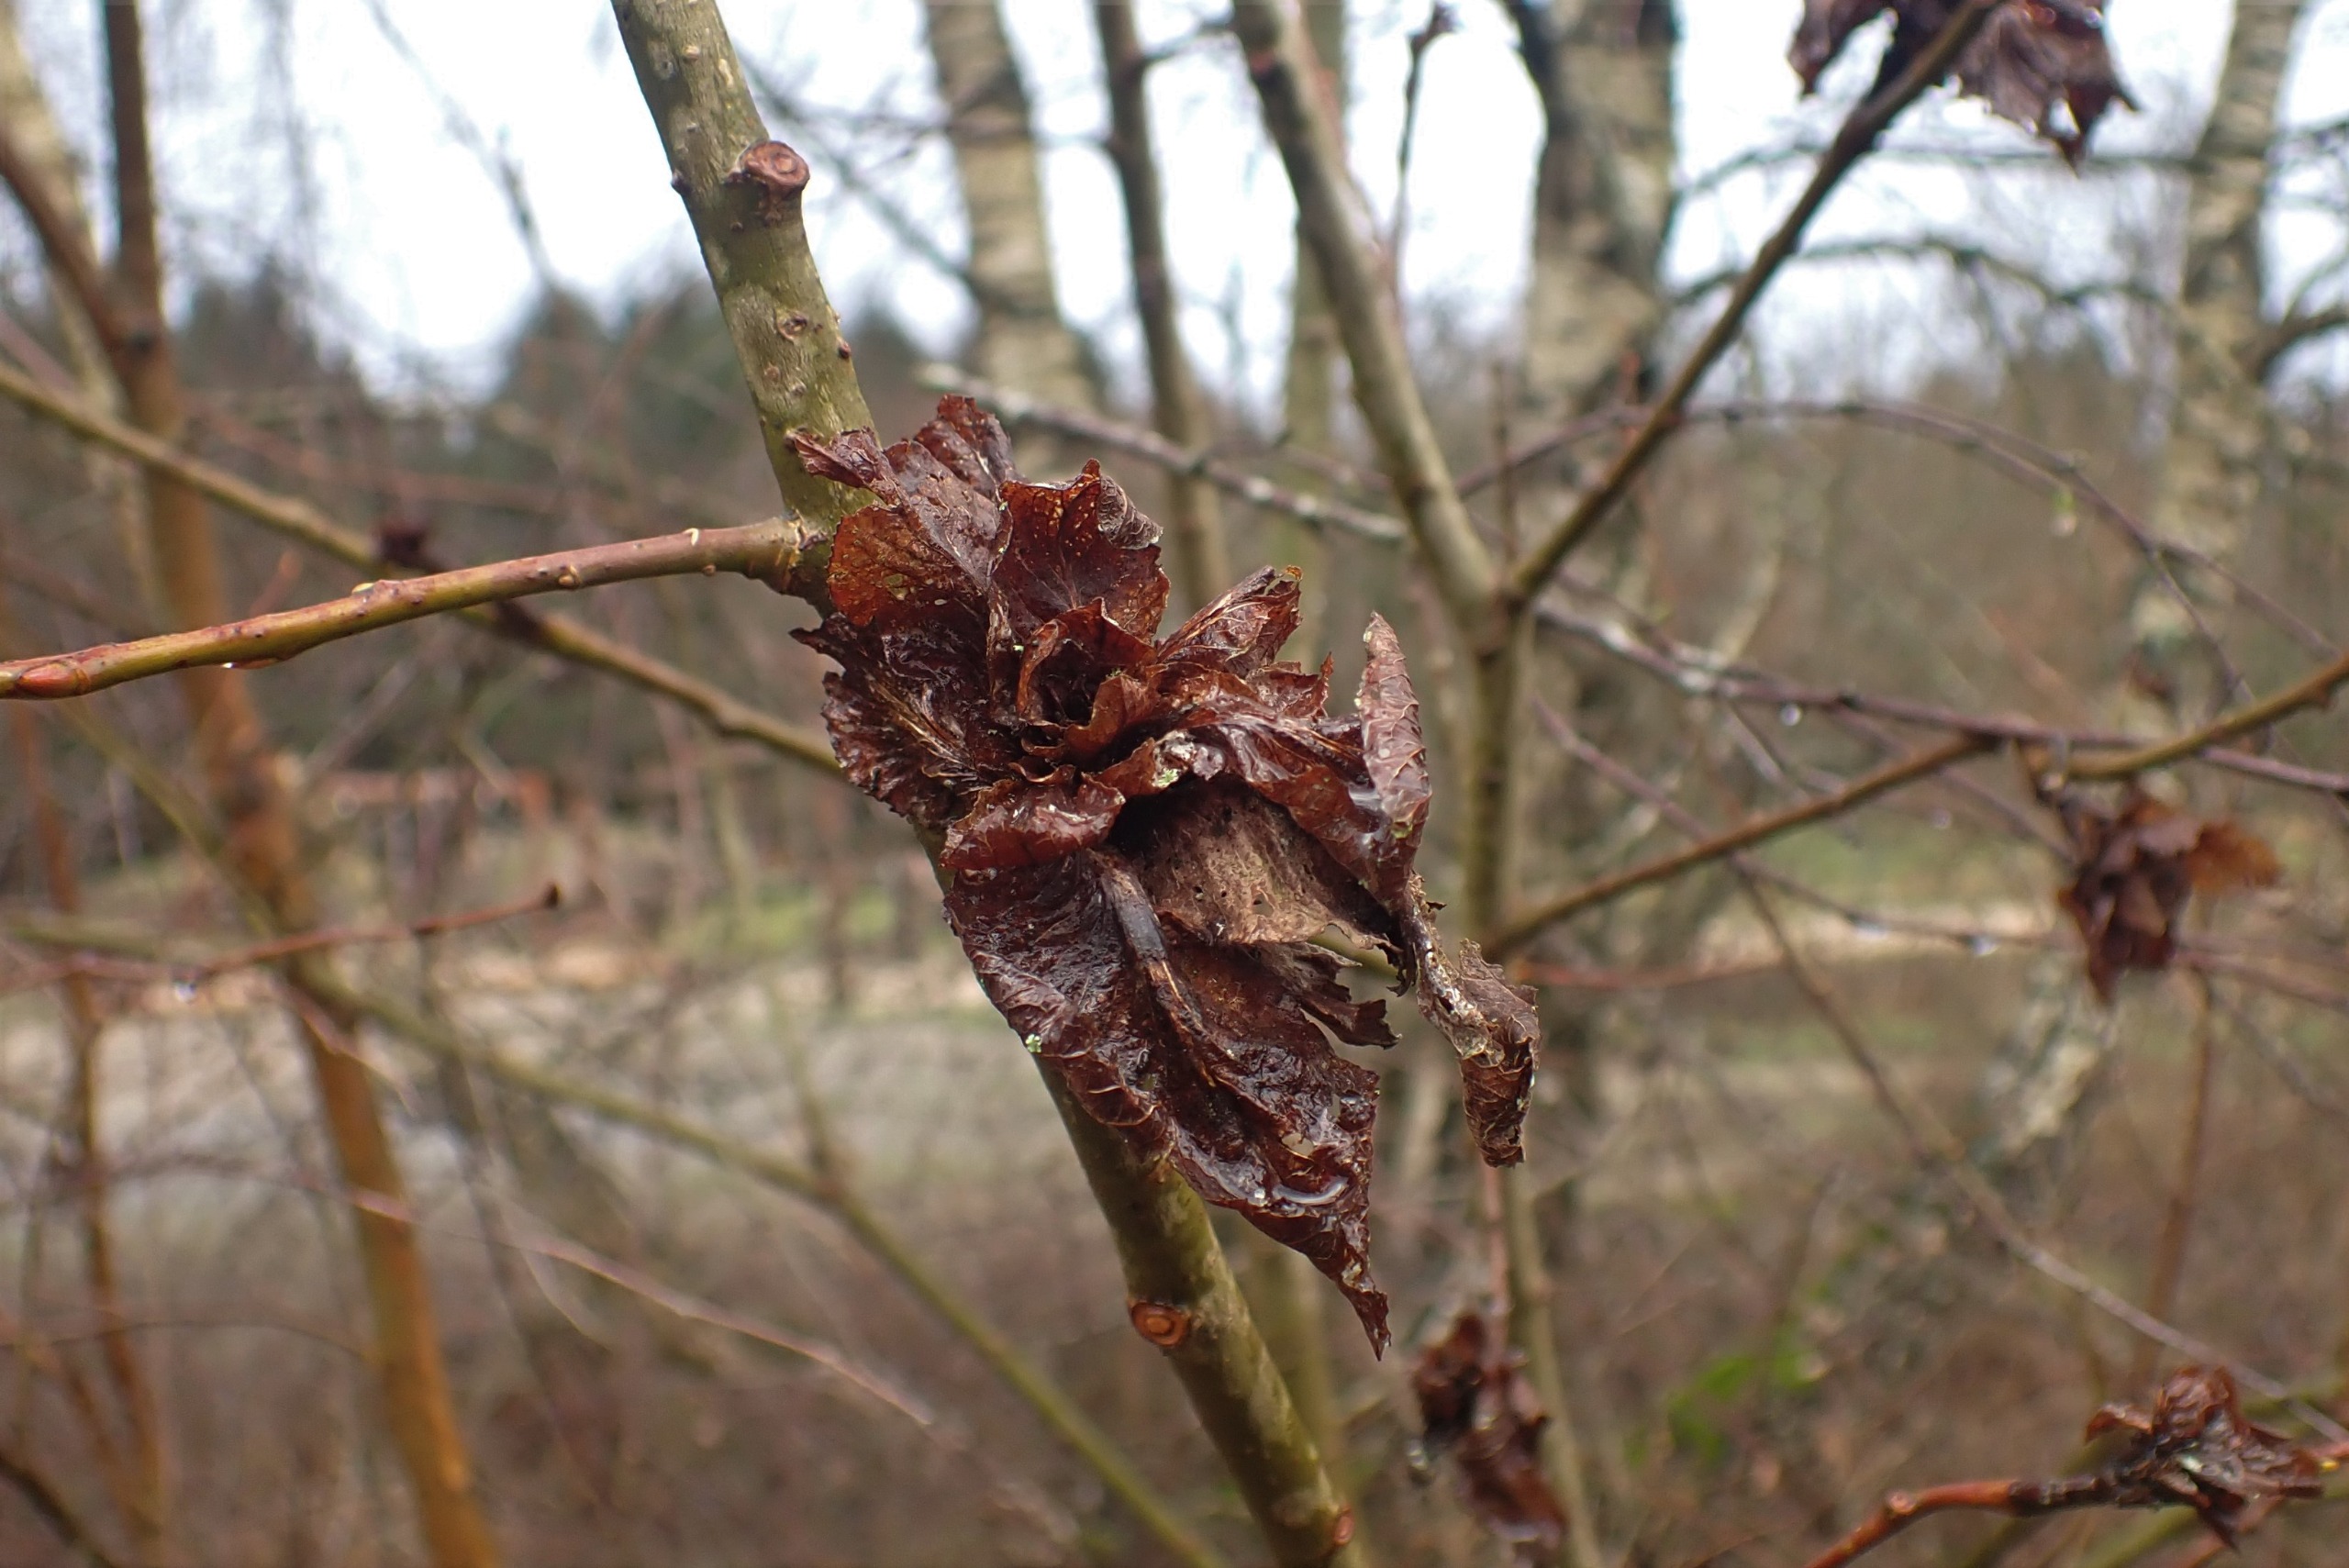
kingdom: Animalia
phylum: Arthropoda
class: Insecta
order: Diptera
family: Cecidomyiidae
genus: Rabdophaga
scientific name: Rabdophaga rosaria
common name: Pilerosetgalmyg
